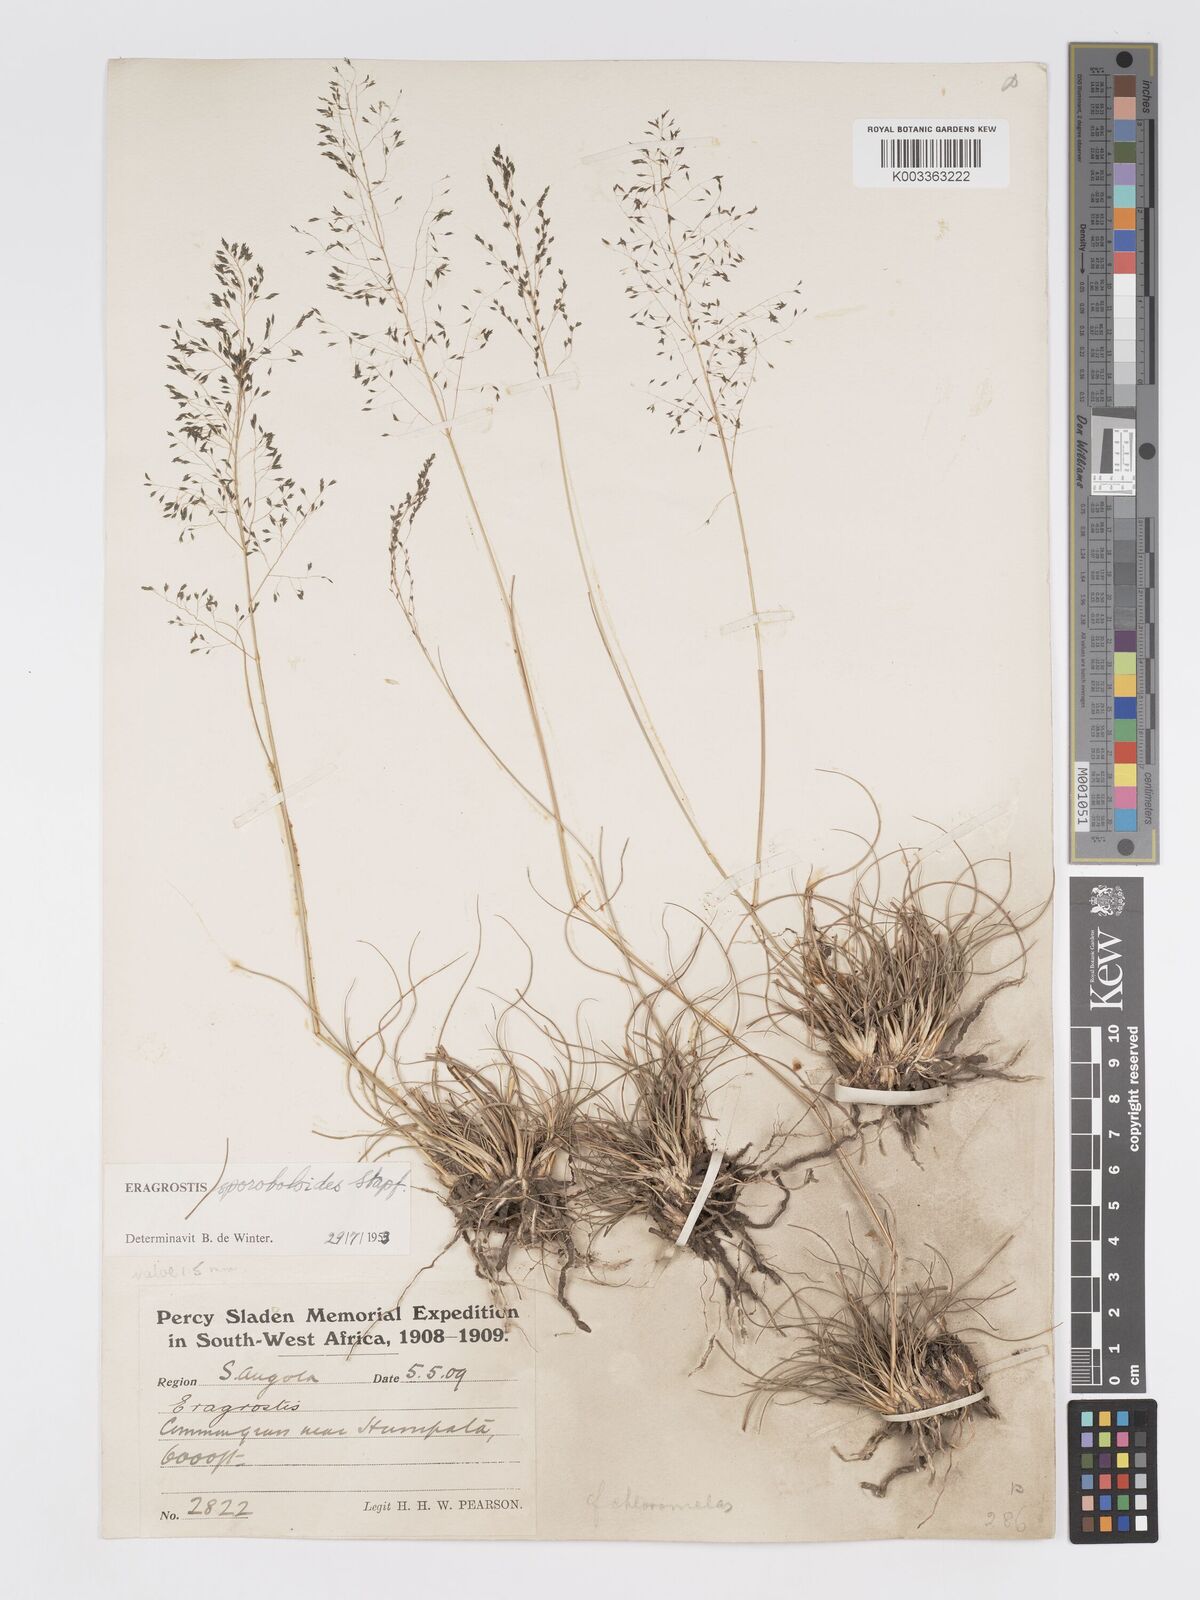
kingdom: Plantae
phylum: Tracheophyta
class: Liliopsida
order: Poales
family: Poaceae
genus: Eragrostis
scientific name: Eragrostis stapfii
